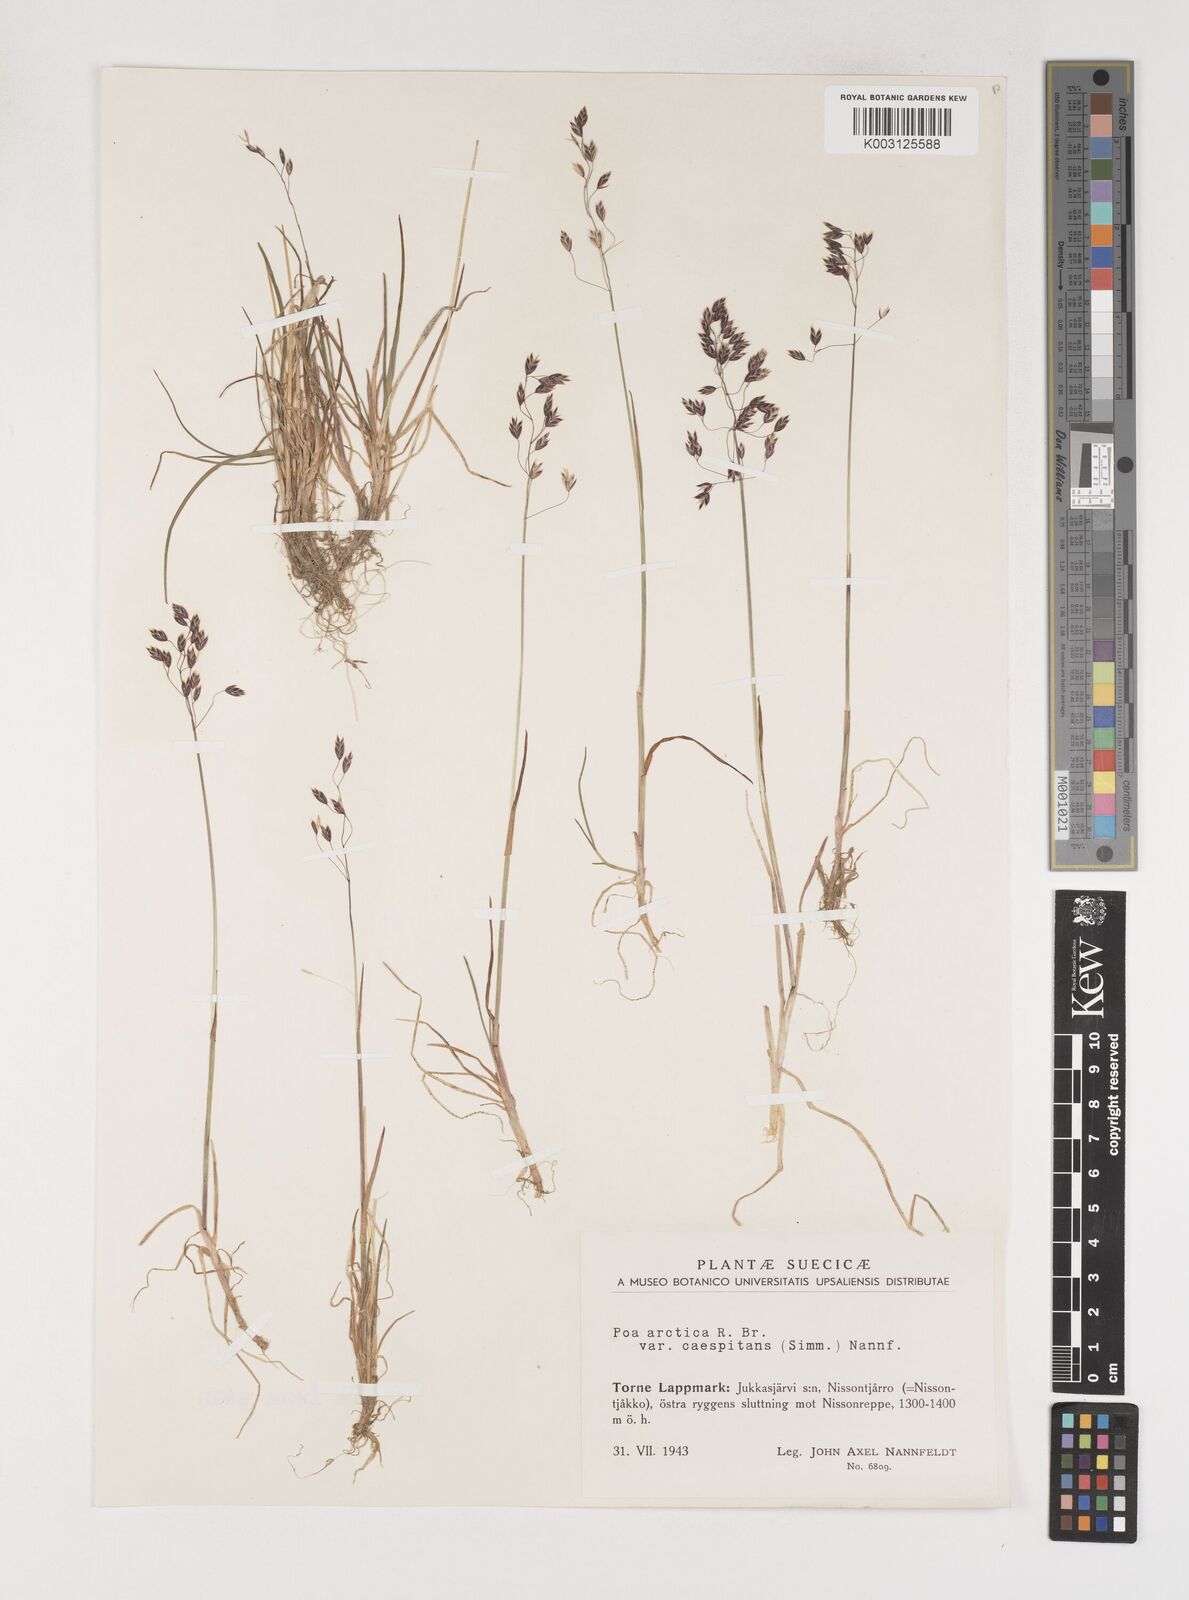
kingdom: Plantae
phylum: Tracheophyta
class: Liliopsida
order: Poales
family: Poaceae
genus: Poa
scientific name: Poa arctica
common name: Arctic bluegrass
